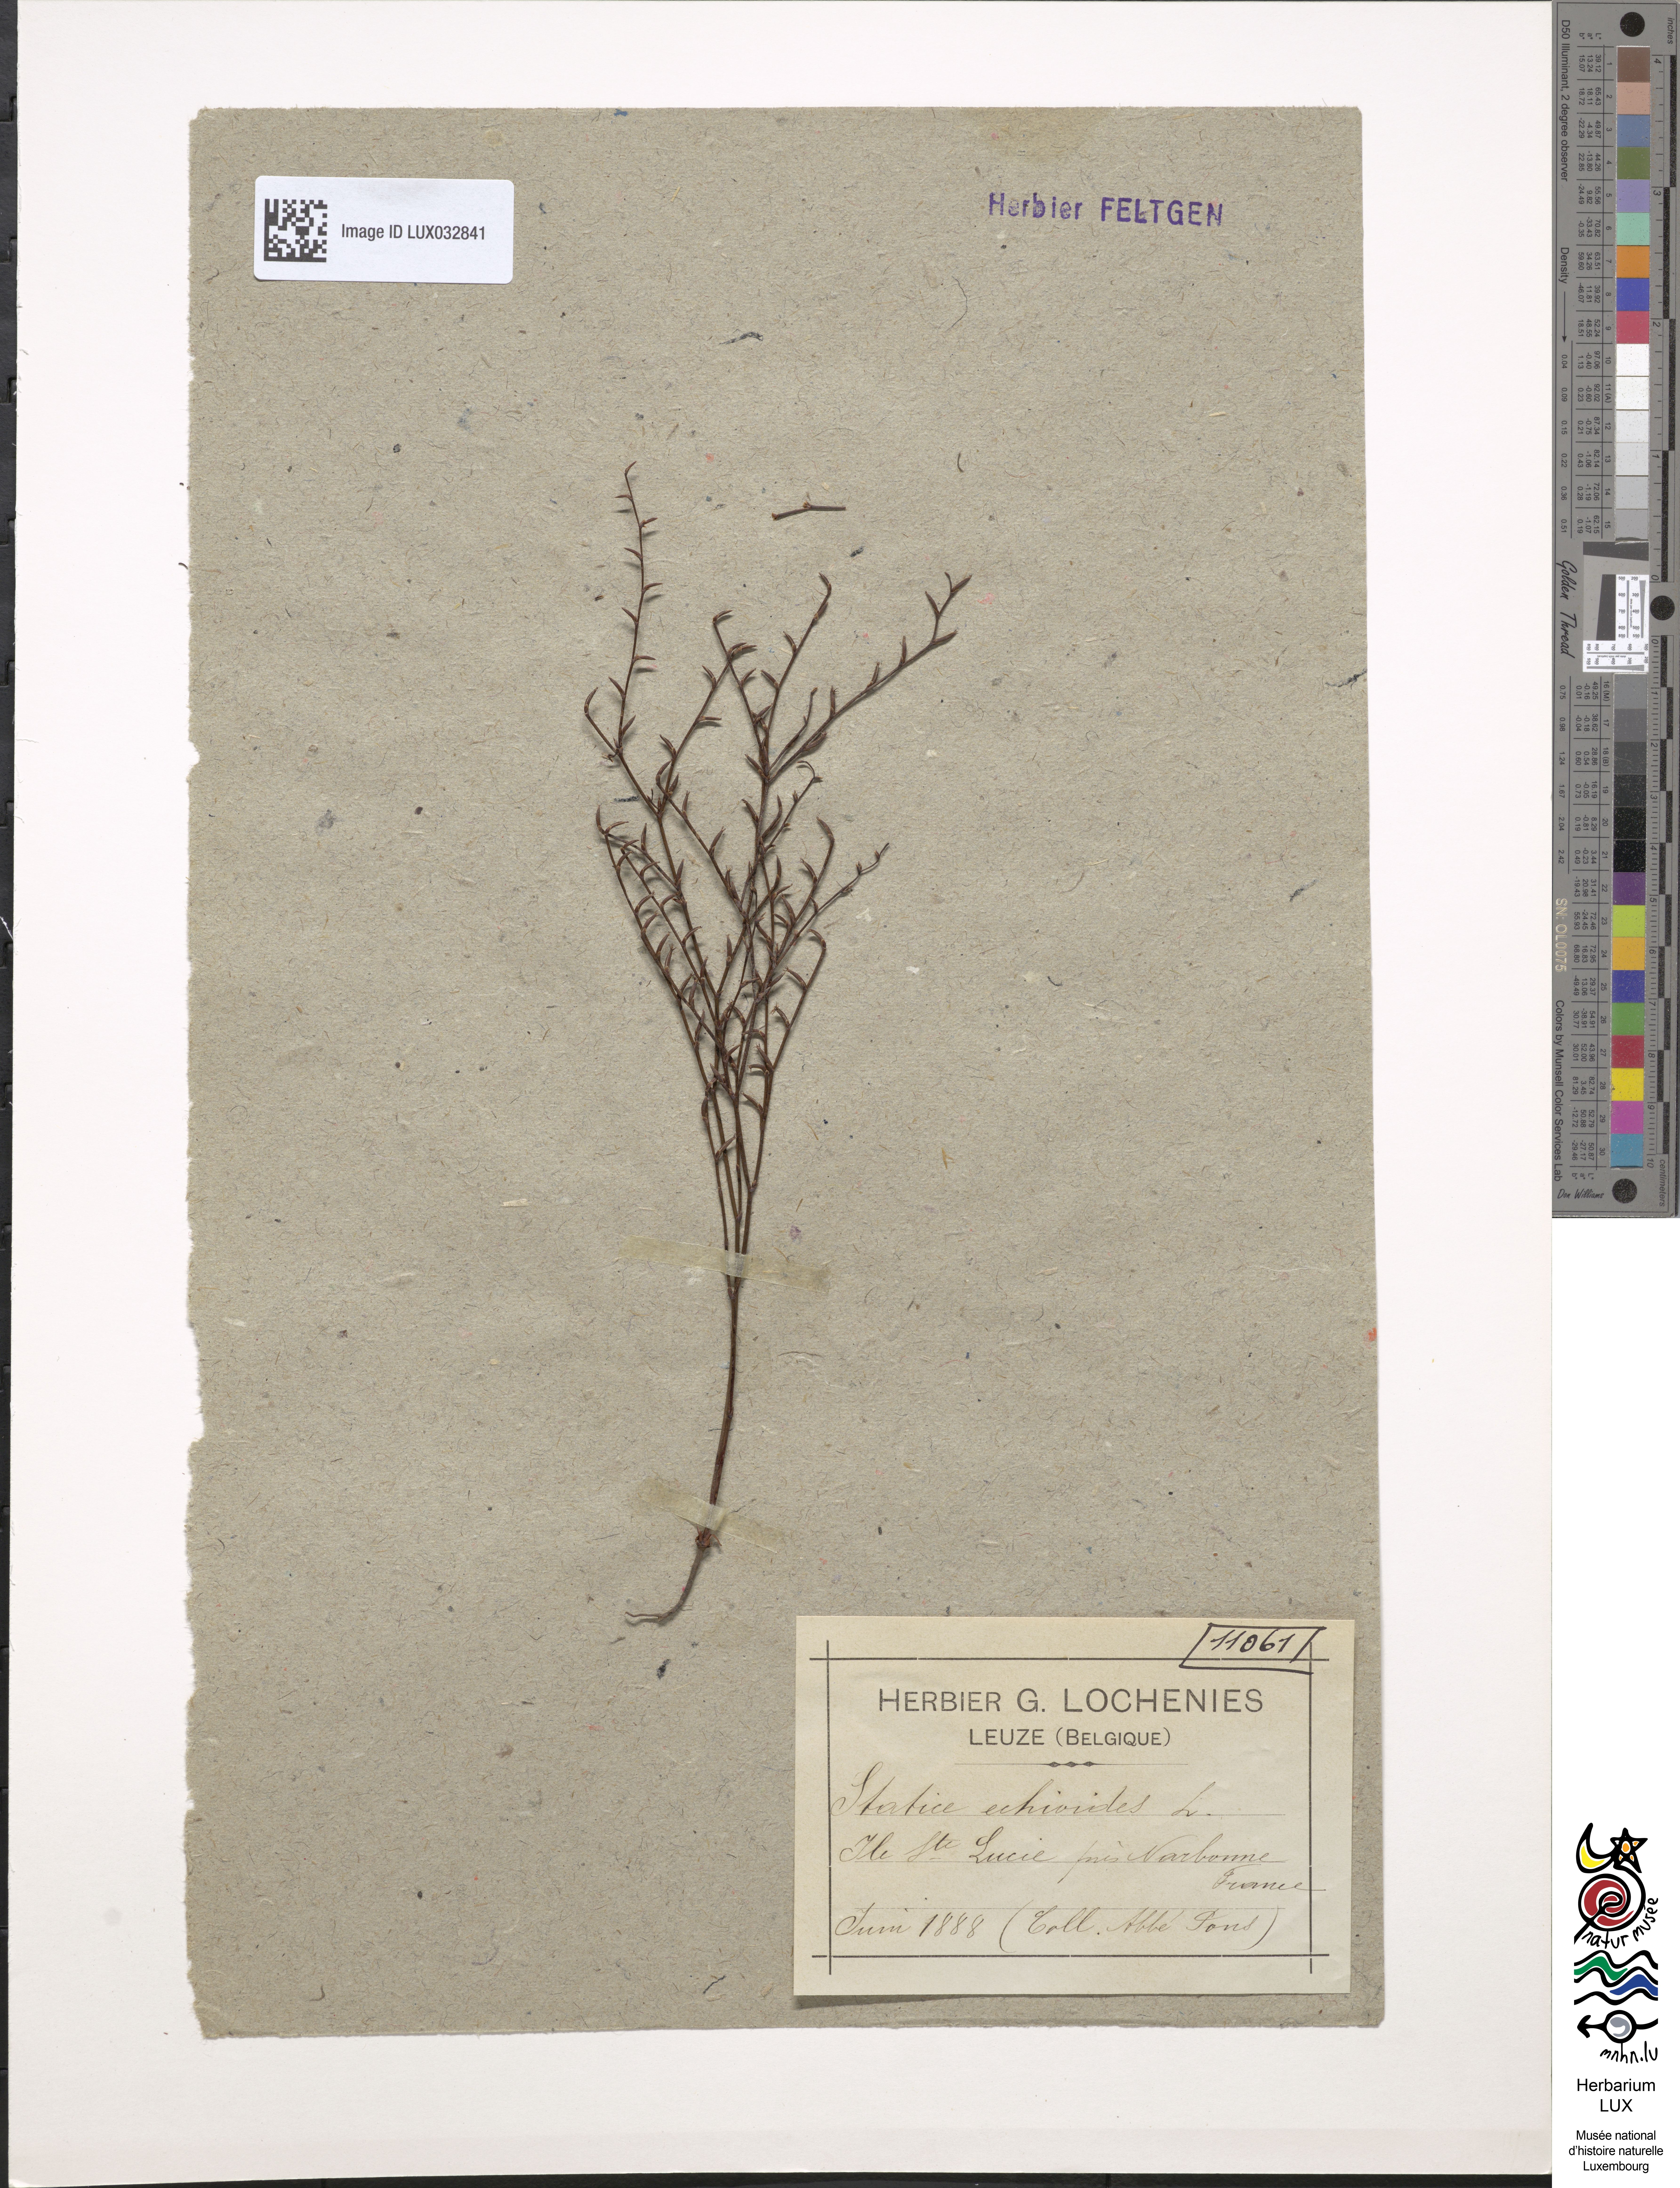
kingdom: Plantae
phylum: Tracheophyta
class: Magnoliopsida
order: Caryophyllales
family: Plumbaginaceae
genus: Limonium
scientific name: Limonium echioides
